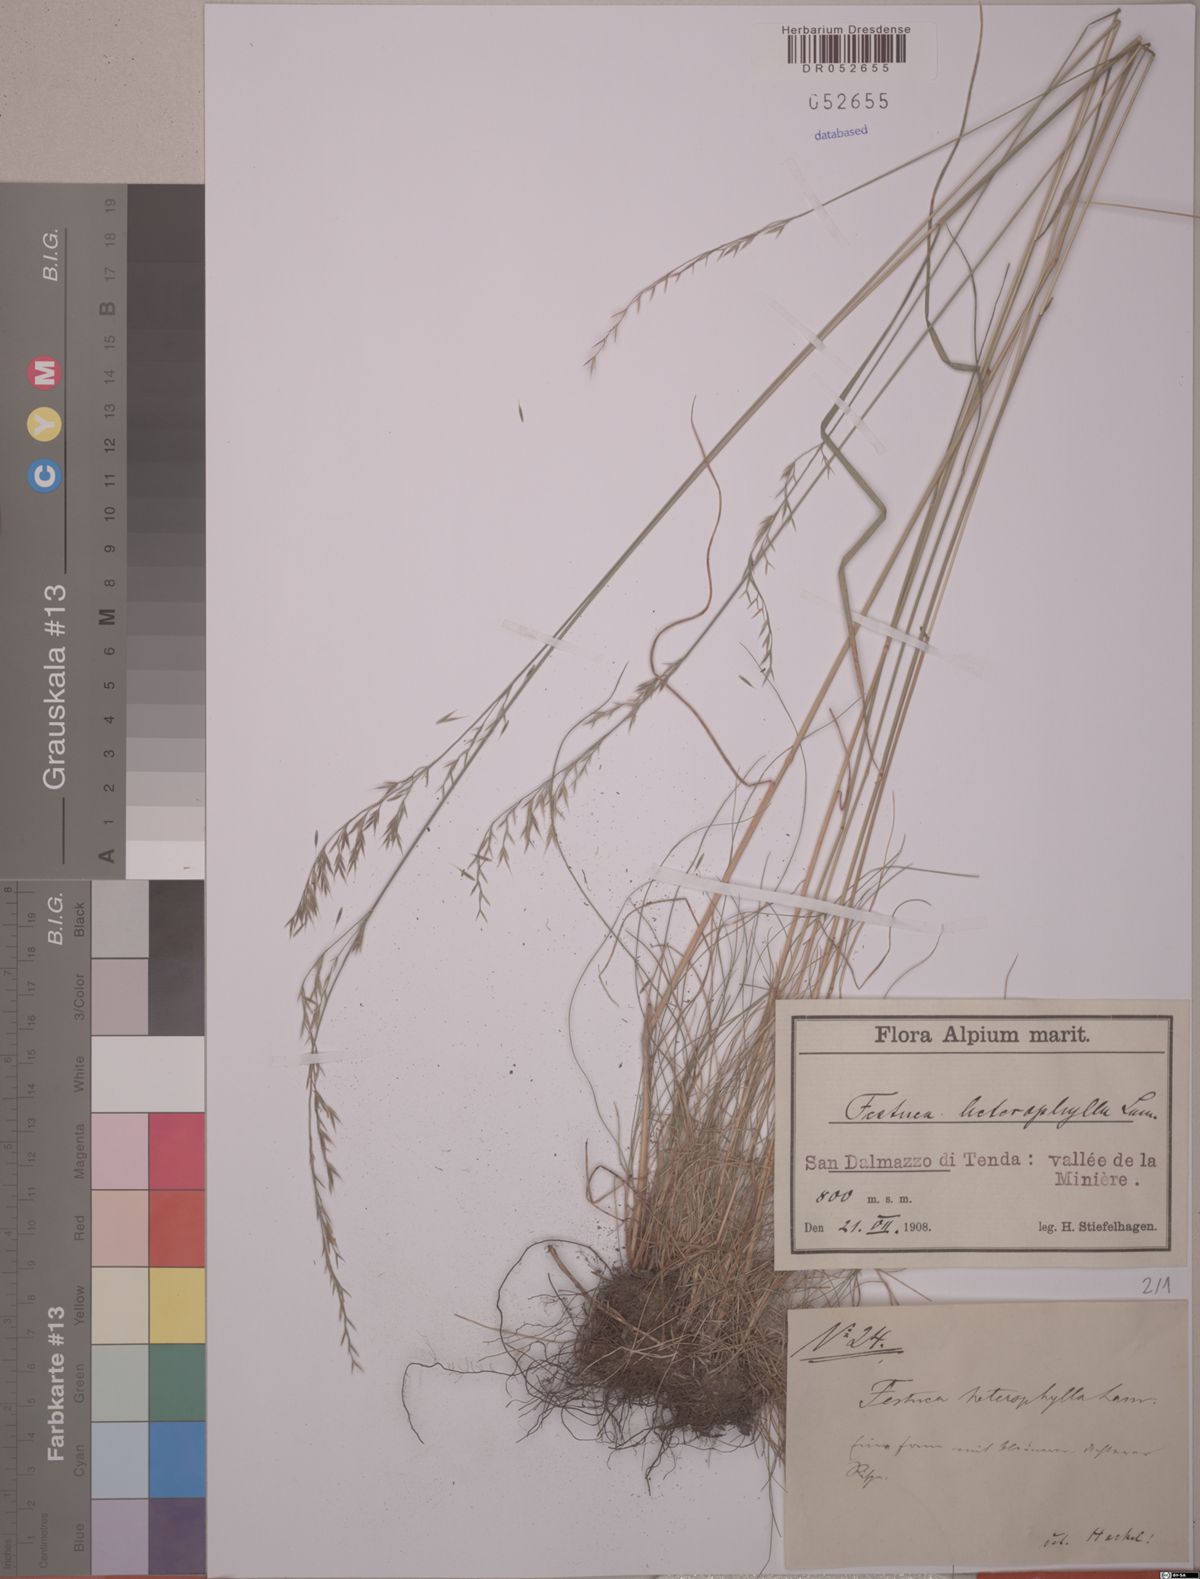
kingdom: Plantae
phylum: Tracheophyta
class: Liliopsida
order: Poales
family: Poaceae
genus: Festuca
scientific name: Festuca heterophylla
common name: Various-leaved fescue
